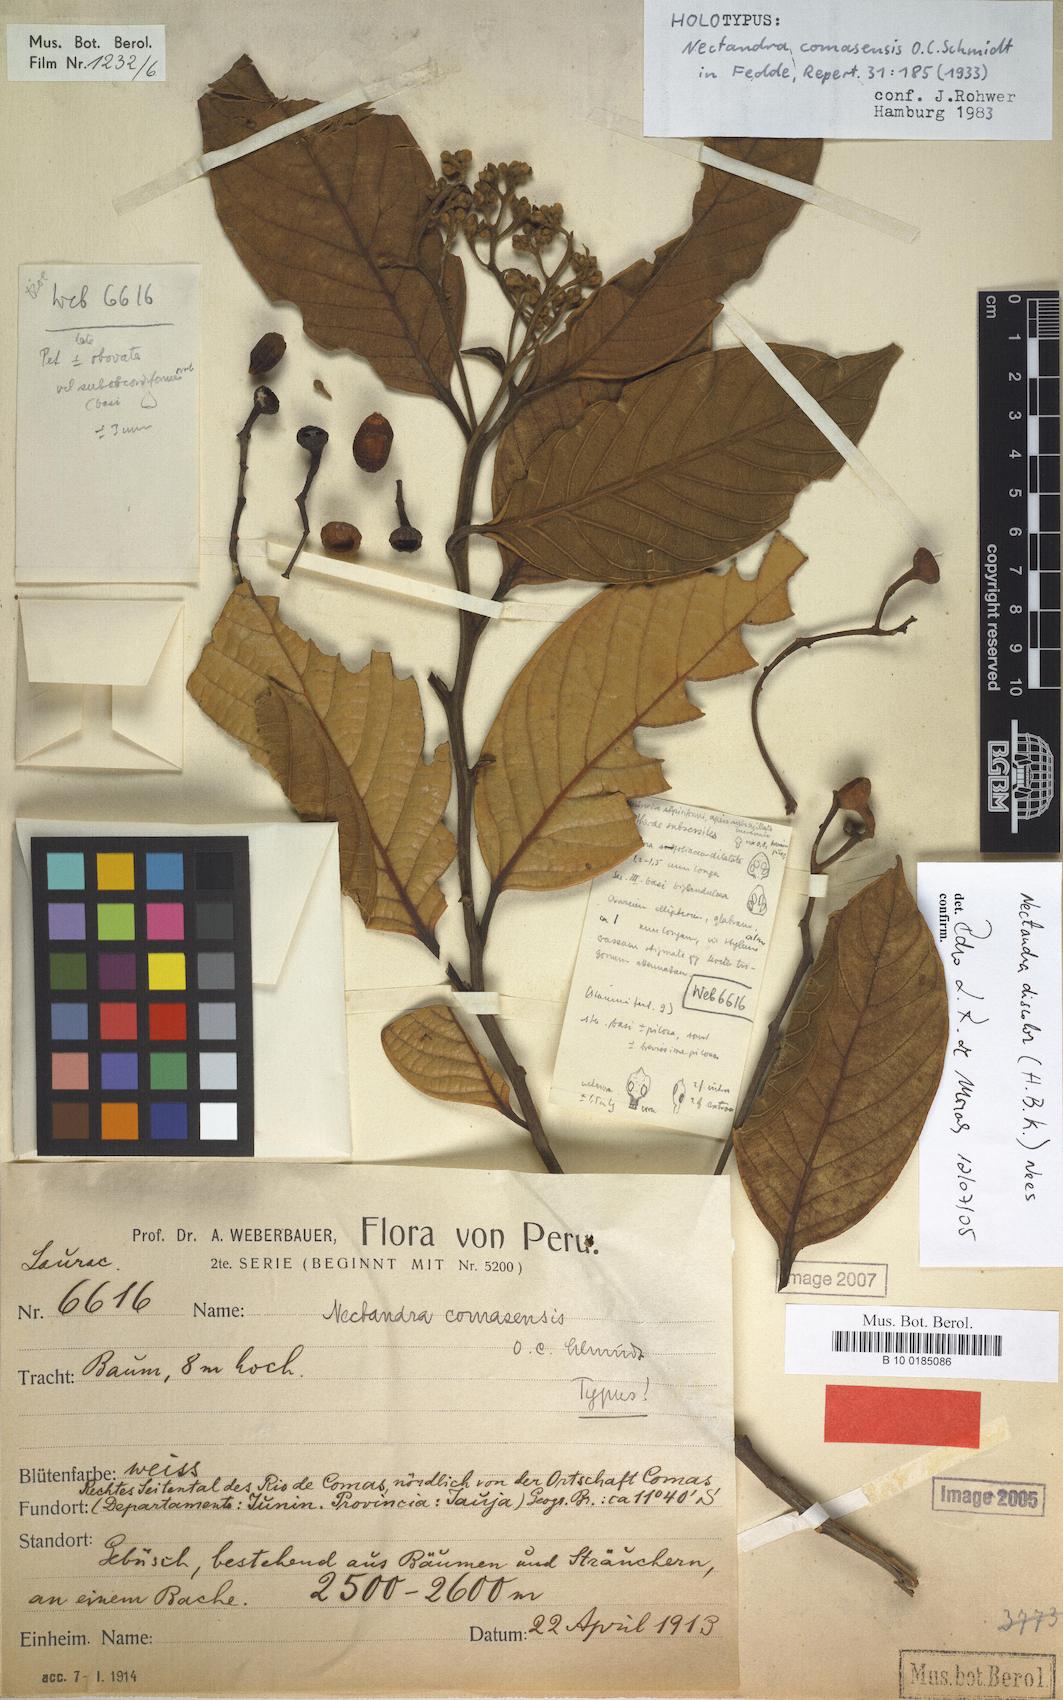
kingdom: Plantae
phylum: Tracheophyta
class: Magnoliopsida
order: Laurales
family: Lauraceae
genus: Nectandra
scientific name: Nectandra discolor
